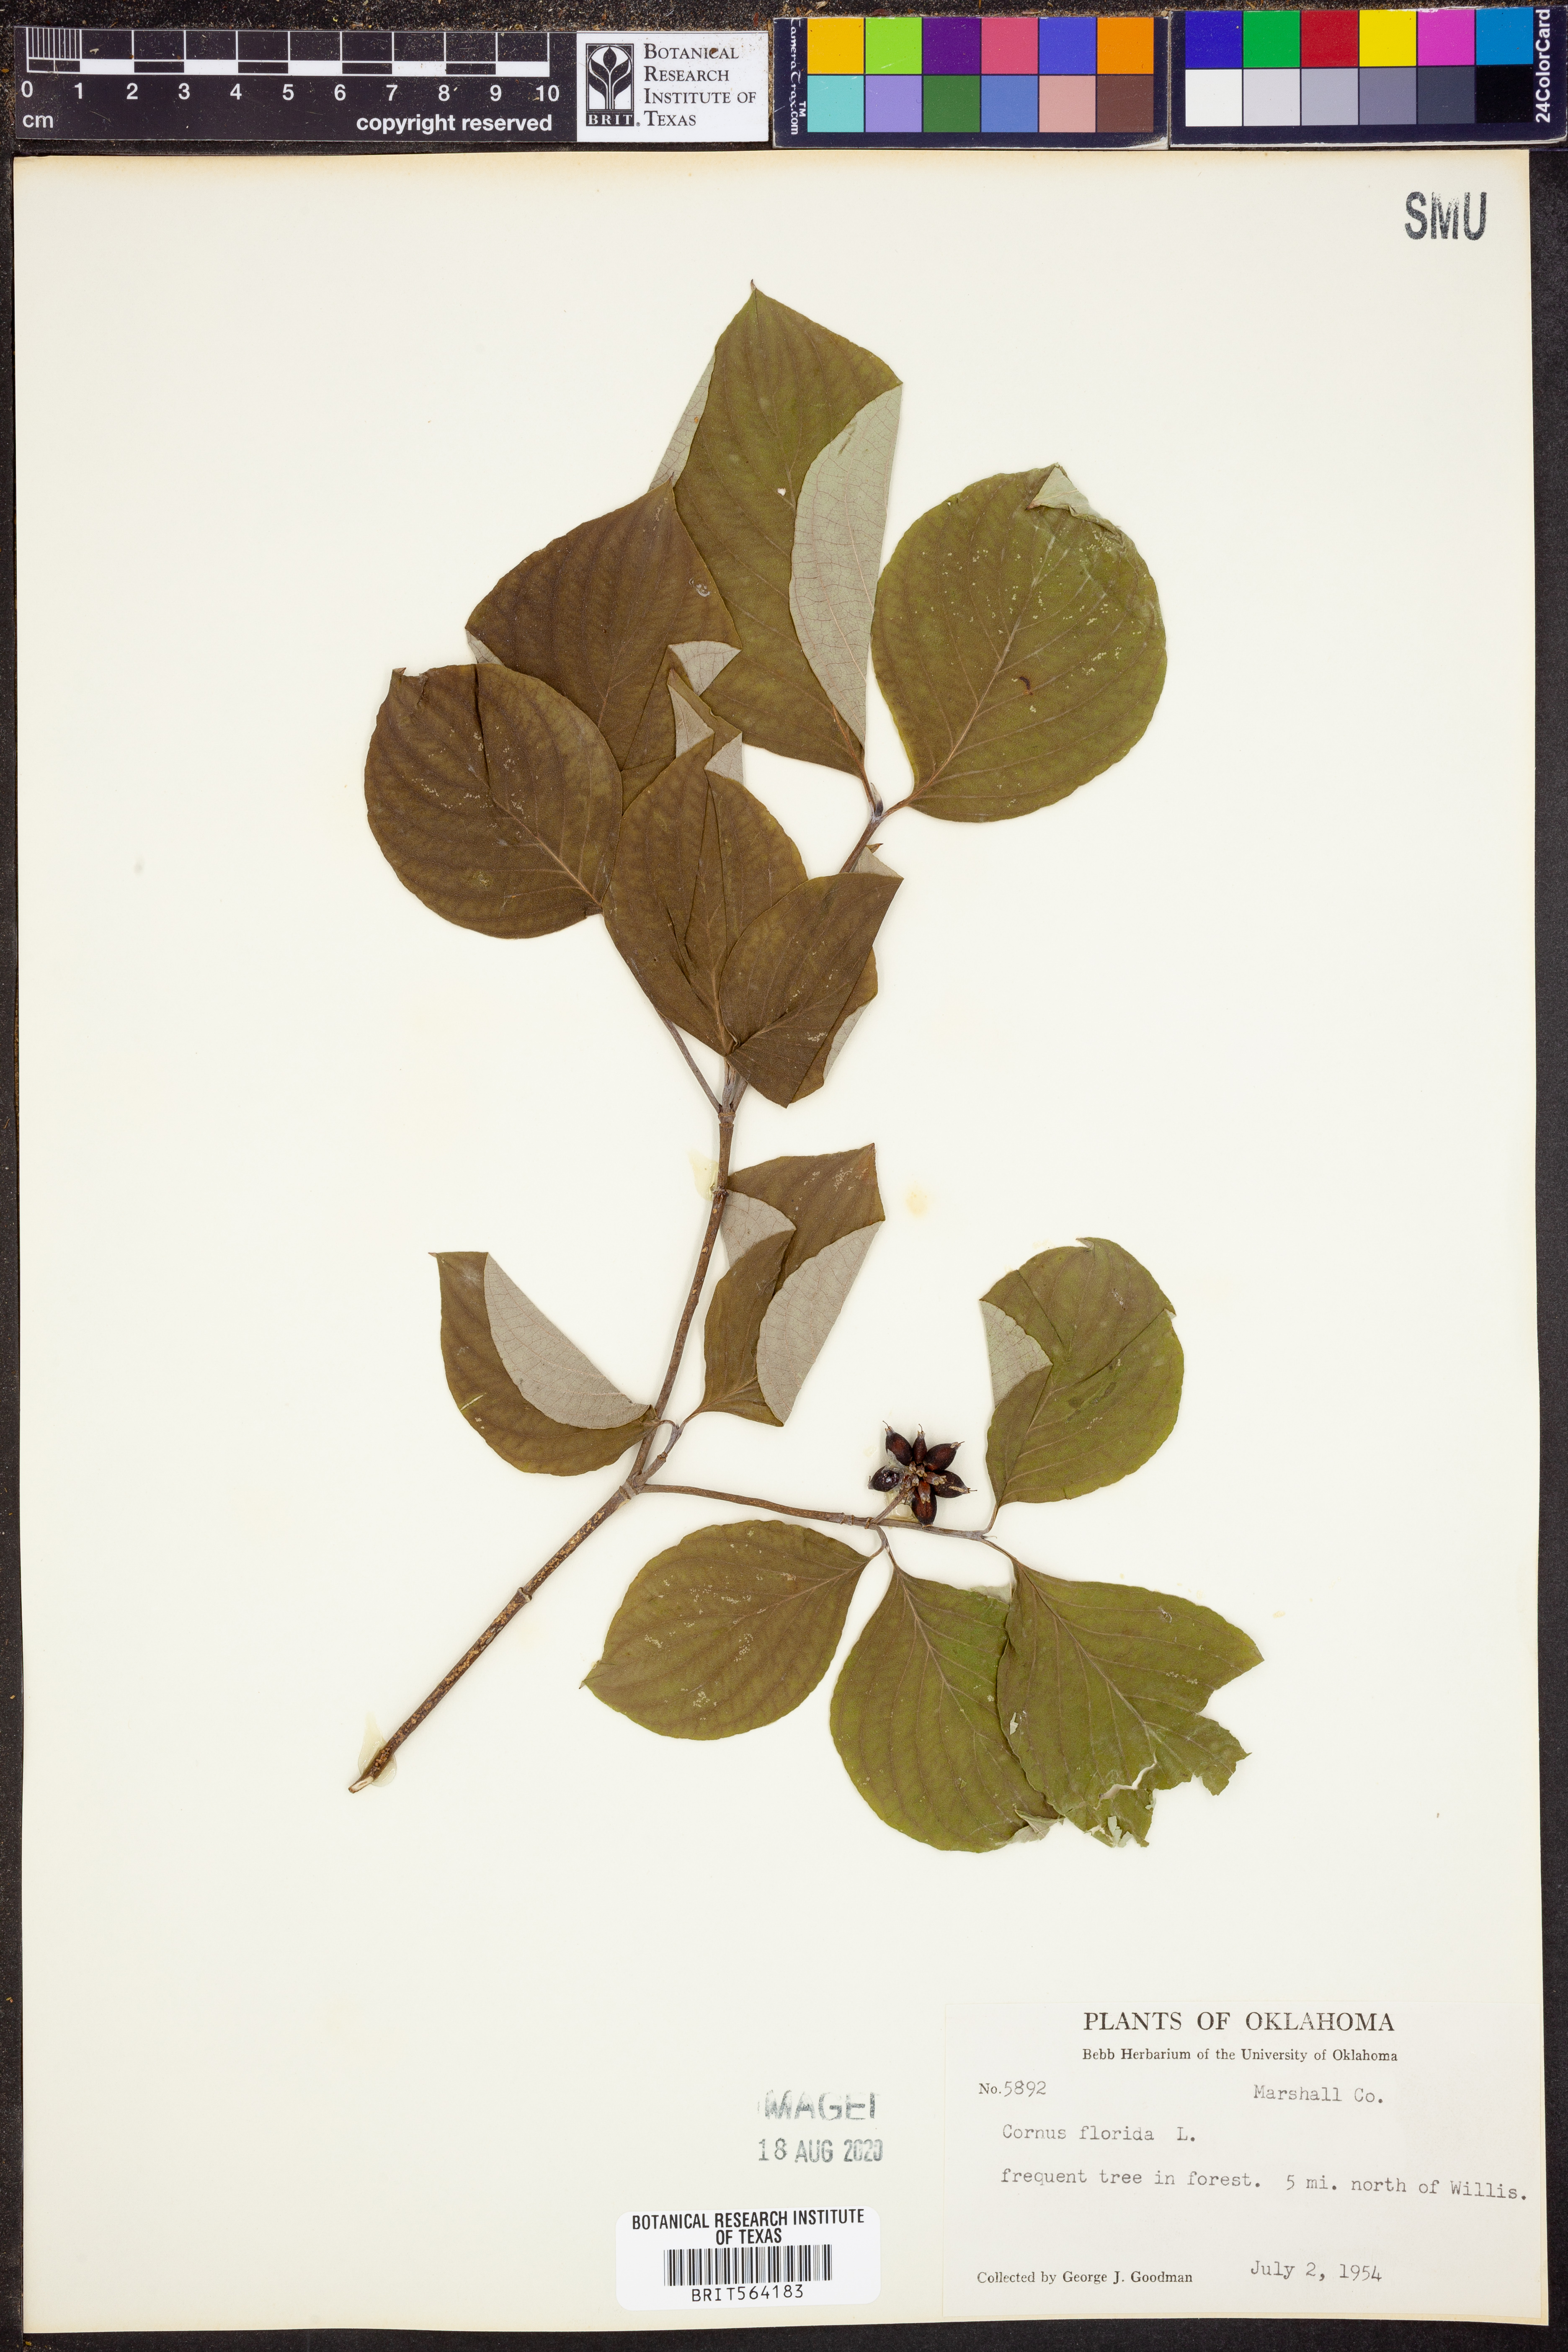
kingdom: Plantae
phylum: Tracheophyta
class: Magnoliopsida
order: Cornales
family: Cornaceae
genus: Cornus
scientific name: Cornus florida
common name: Flowering dogwood
